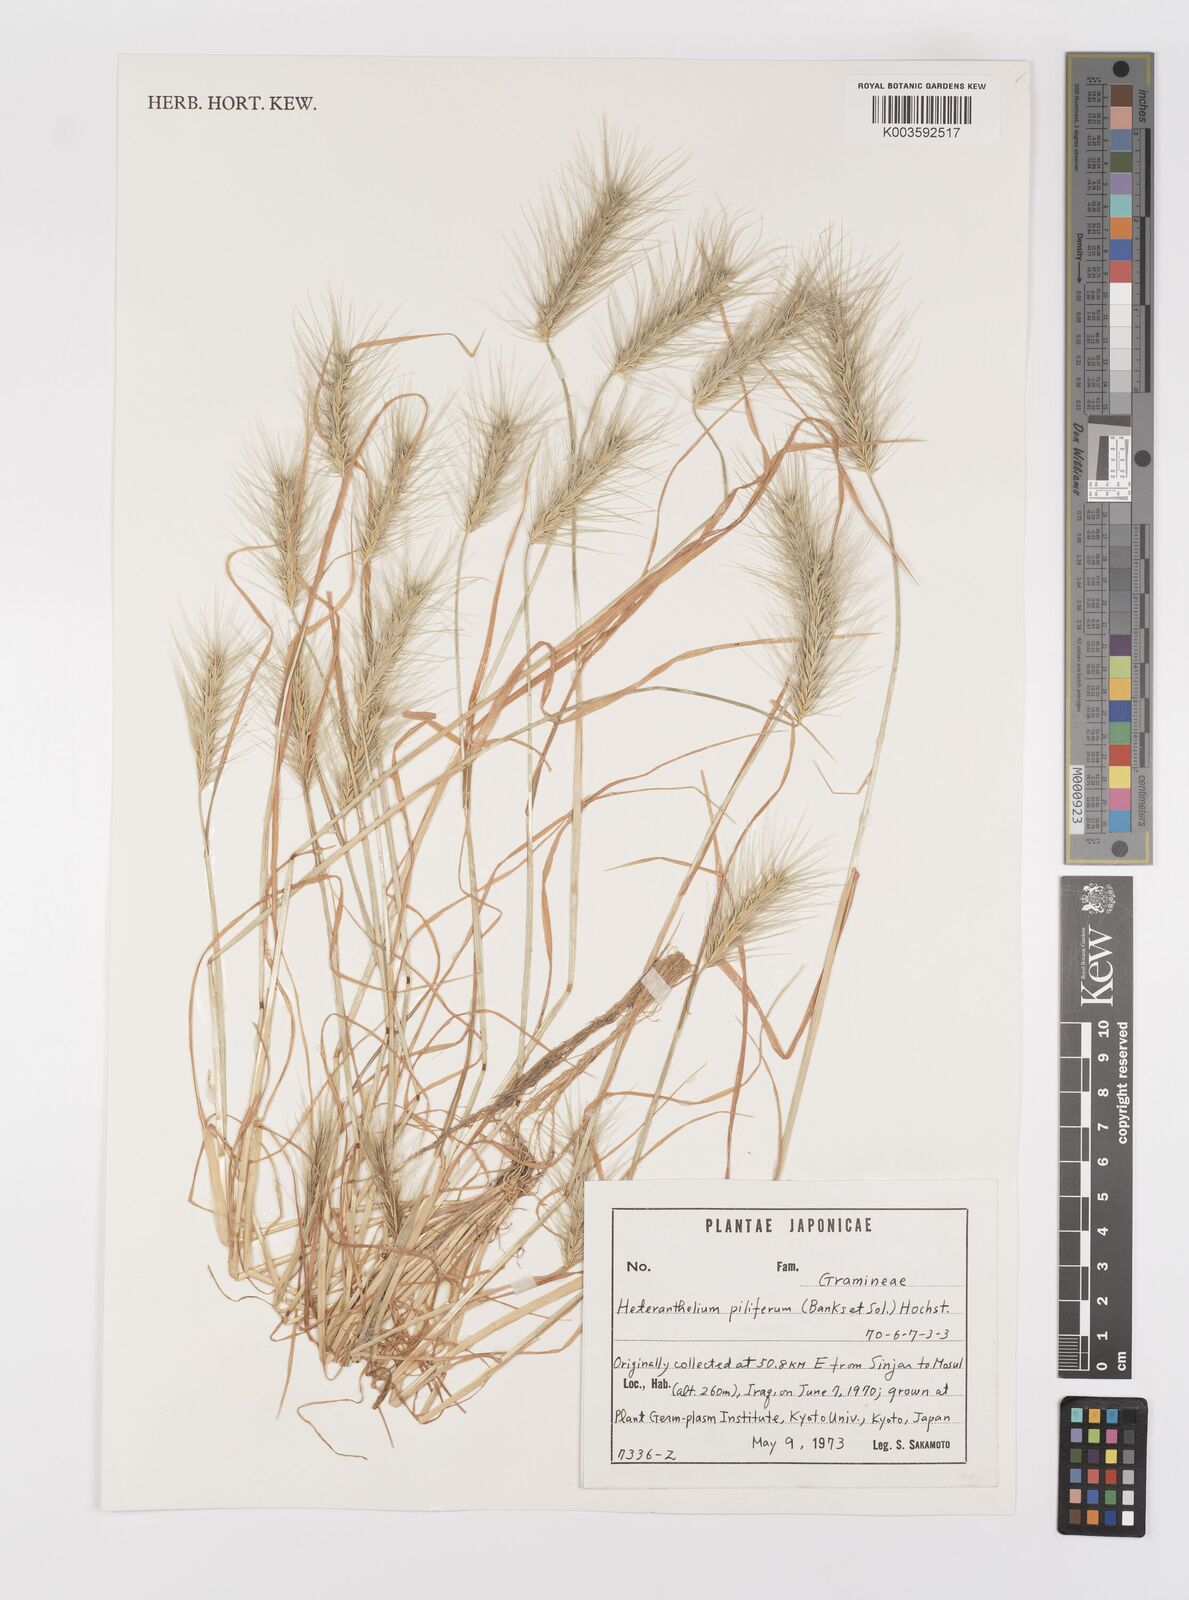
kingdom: Plantae
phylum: Tracheophyta
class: Liliopsida
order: Poales
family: Poaceae
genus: Heteranthelium
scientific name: Heteranthelium piliferum
